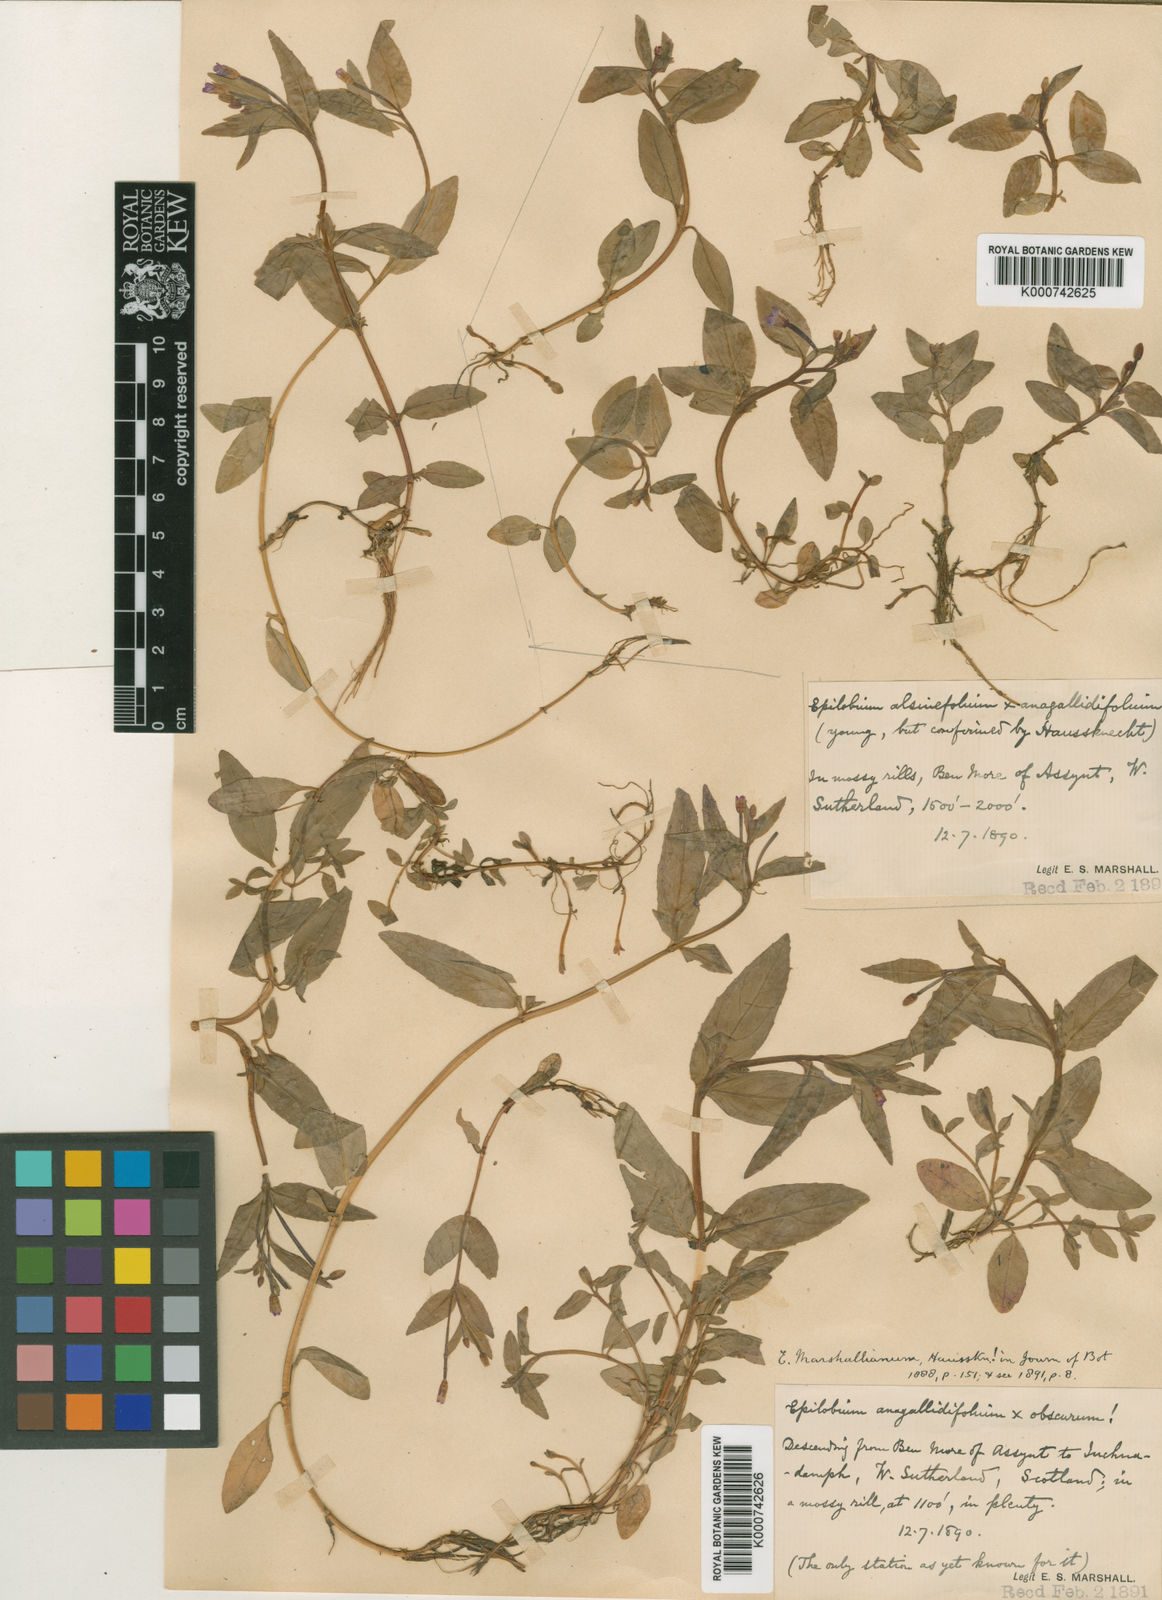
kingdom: Plantae
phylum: Tracheophyta
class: Magnoliopsida
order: Myrtales
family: Onagraceae
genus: Epilobium
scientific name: Epilobium
